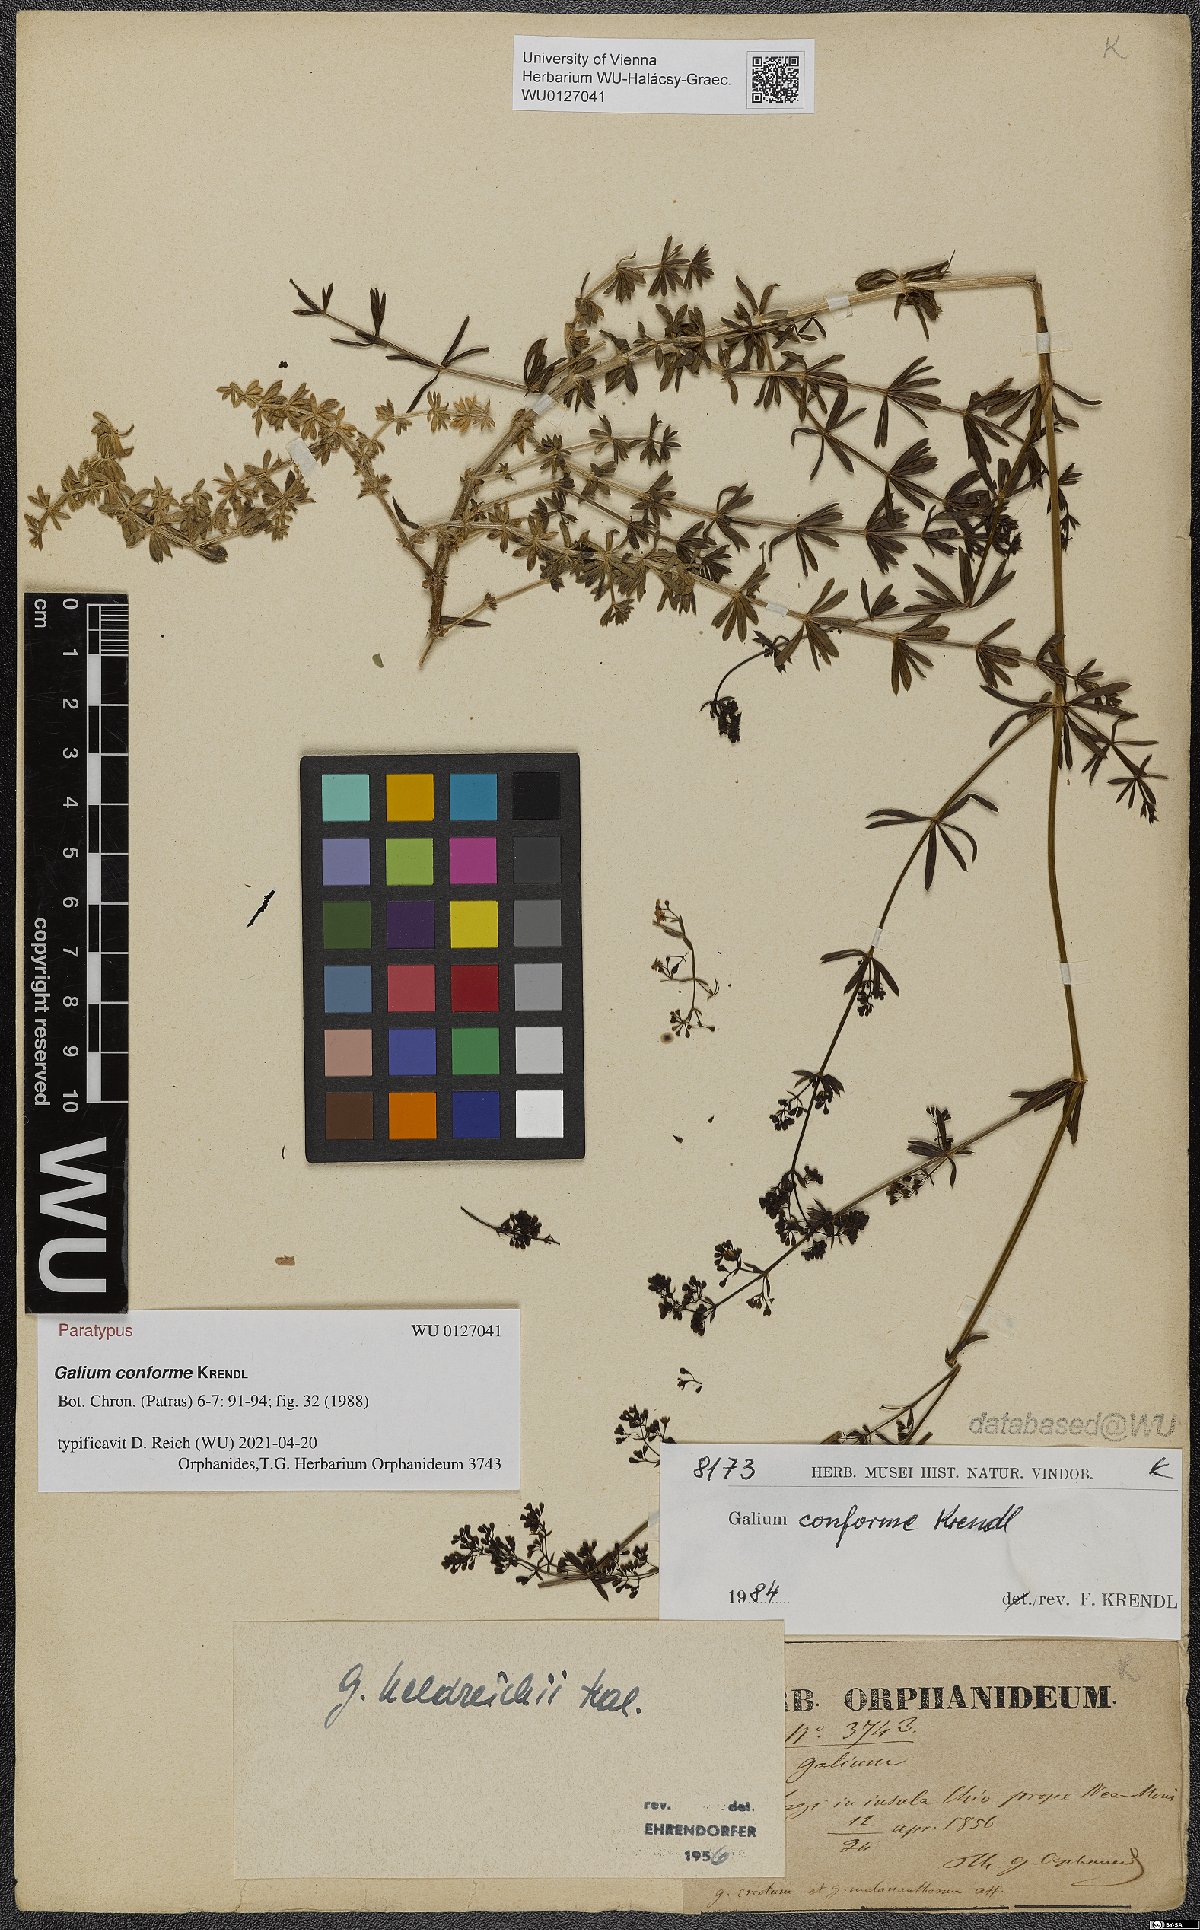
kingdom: Plantae
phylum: Tracheophyta
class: Magnoliopsida
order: Gentianales
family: Rubiaceae
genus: Galium
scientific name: Galium conforme
